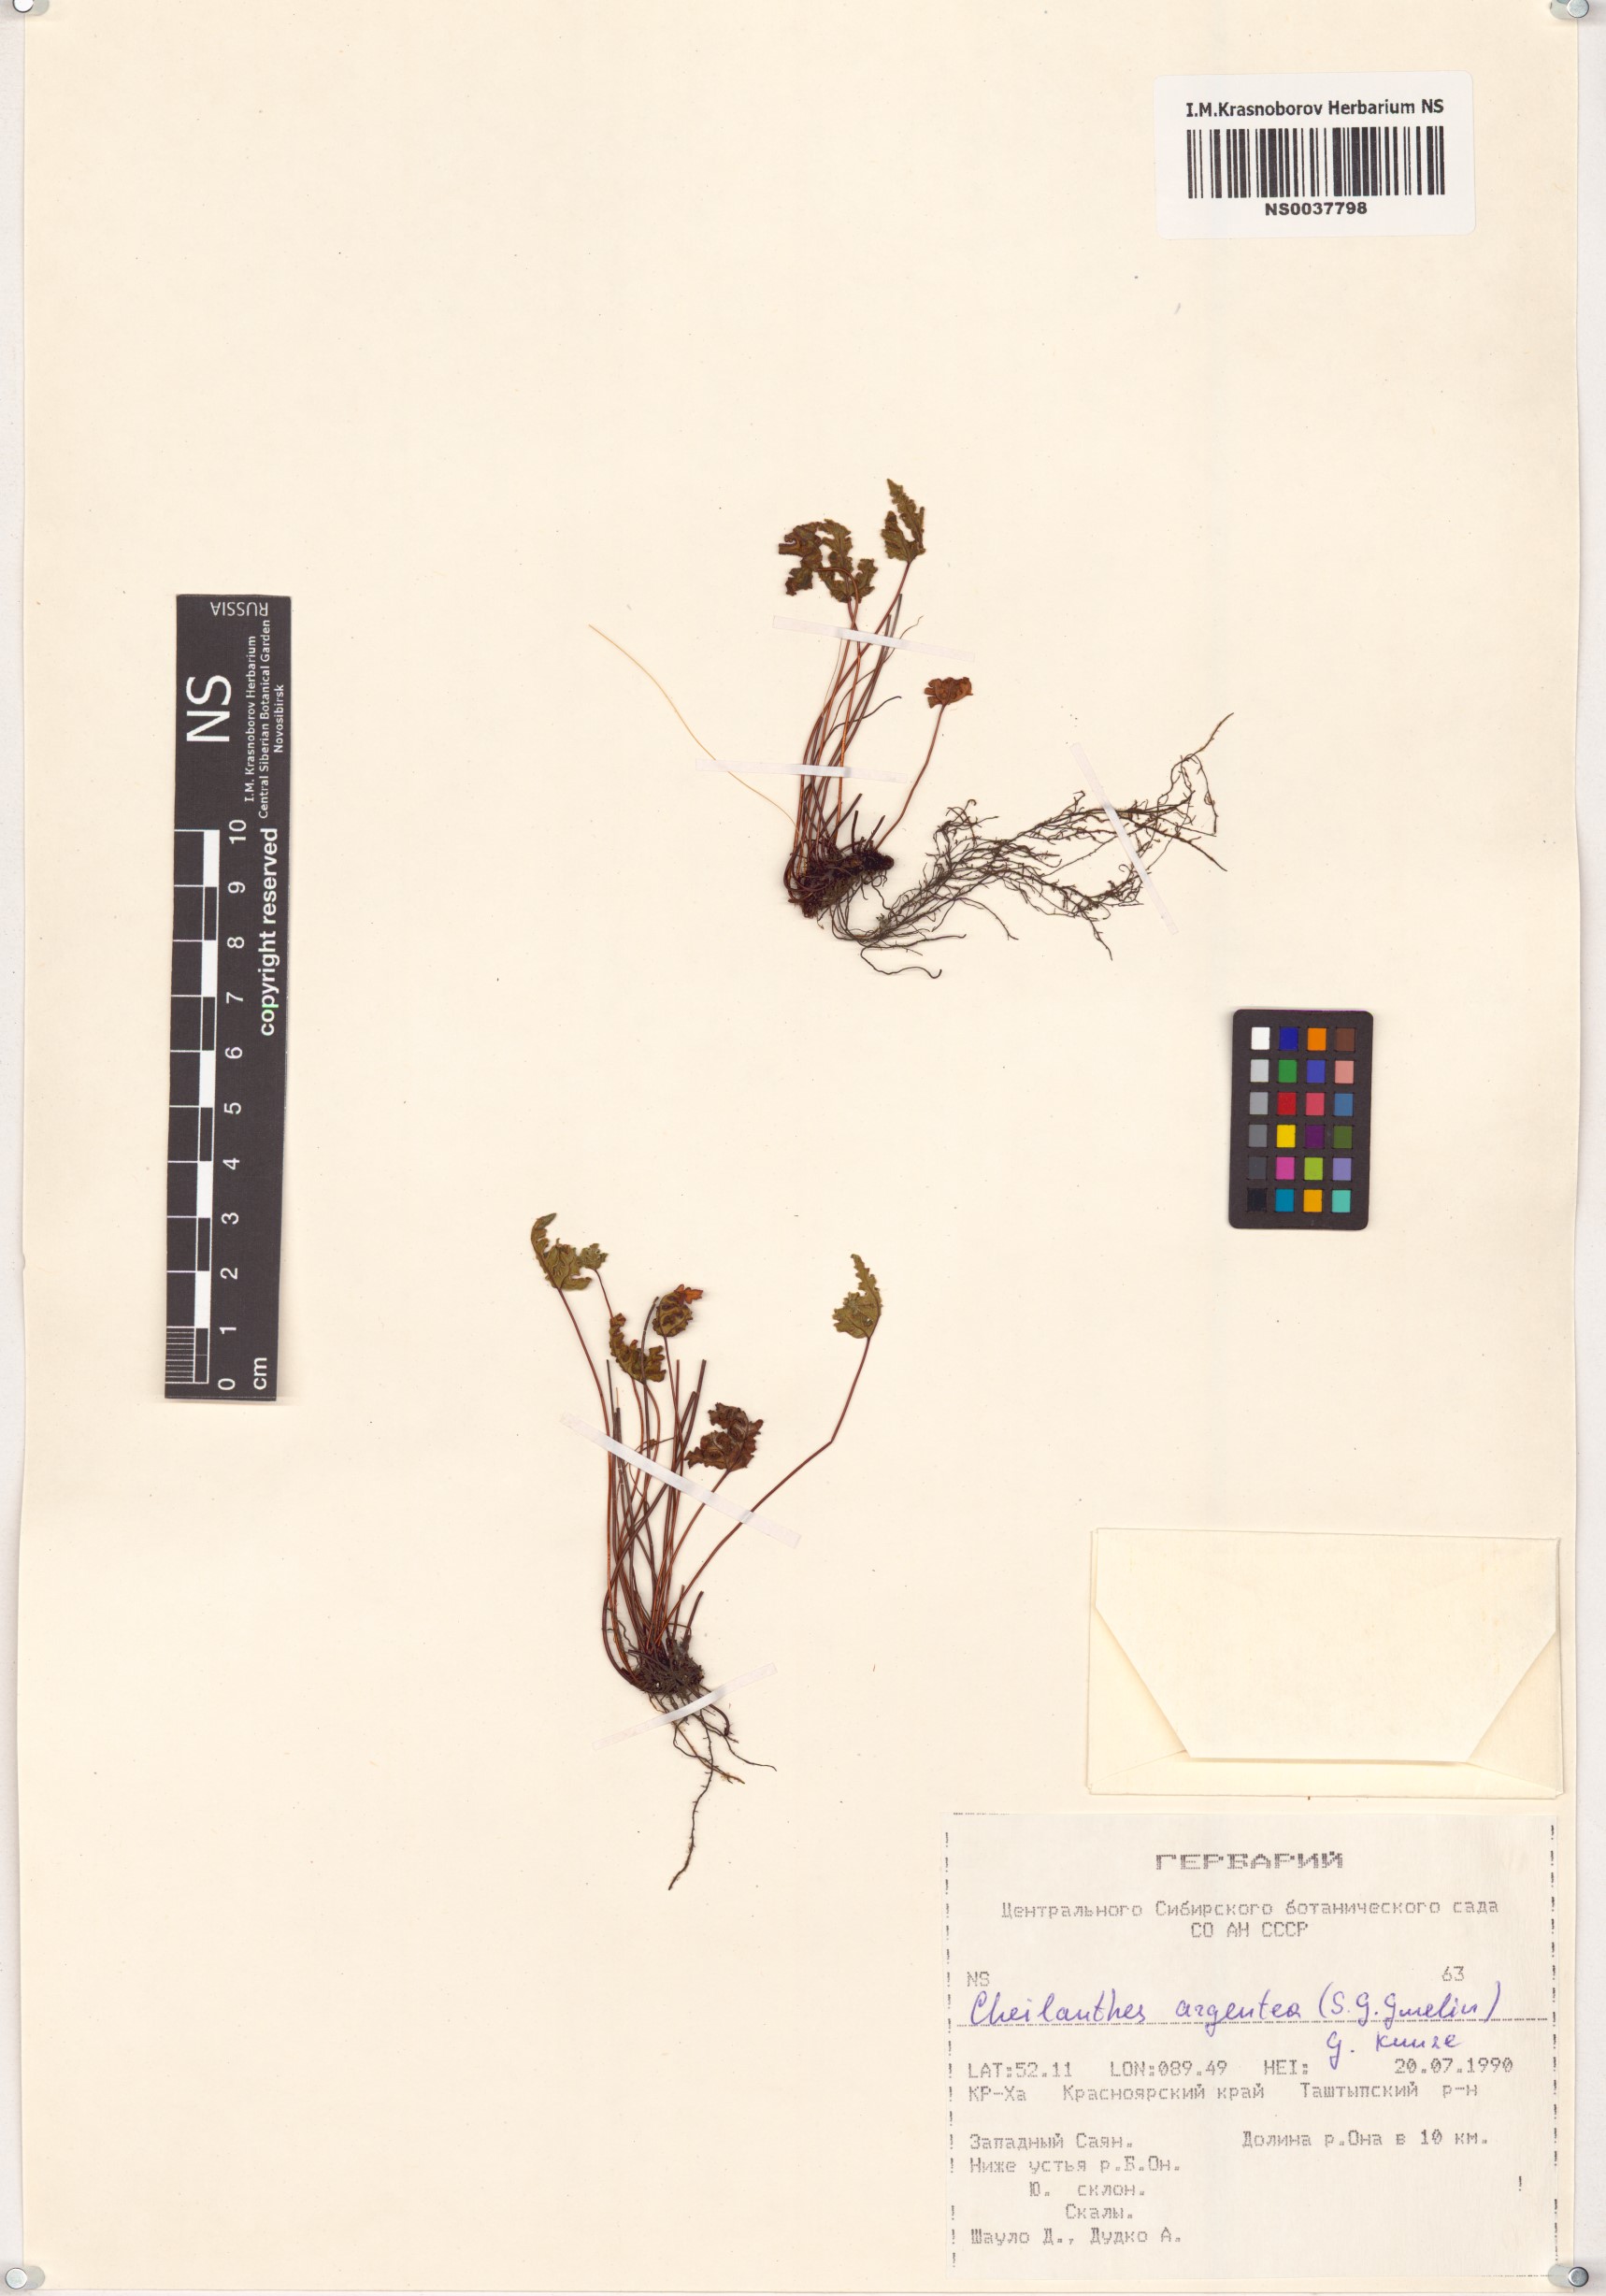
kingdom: Plantae
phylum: Tracheophyta
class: Polypodiopsida
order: Polypodiales
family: Pteridaceae
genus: Aleuritopteris
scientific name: Aleuritopteris argentea
